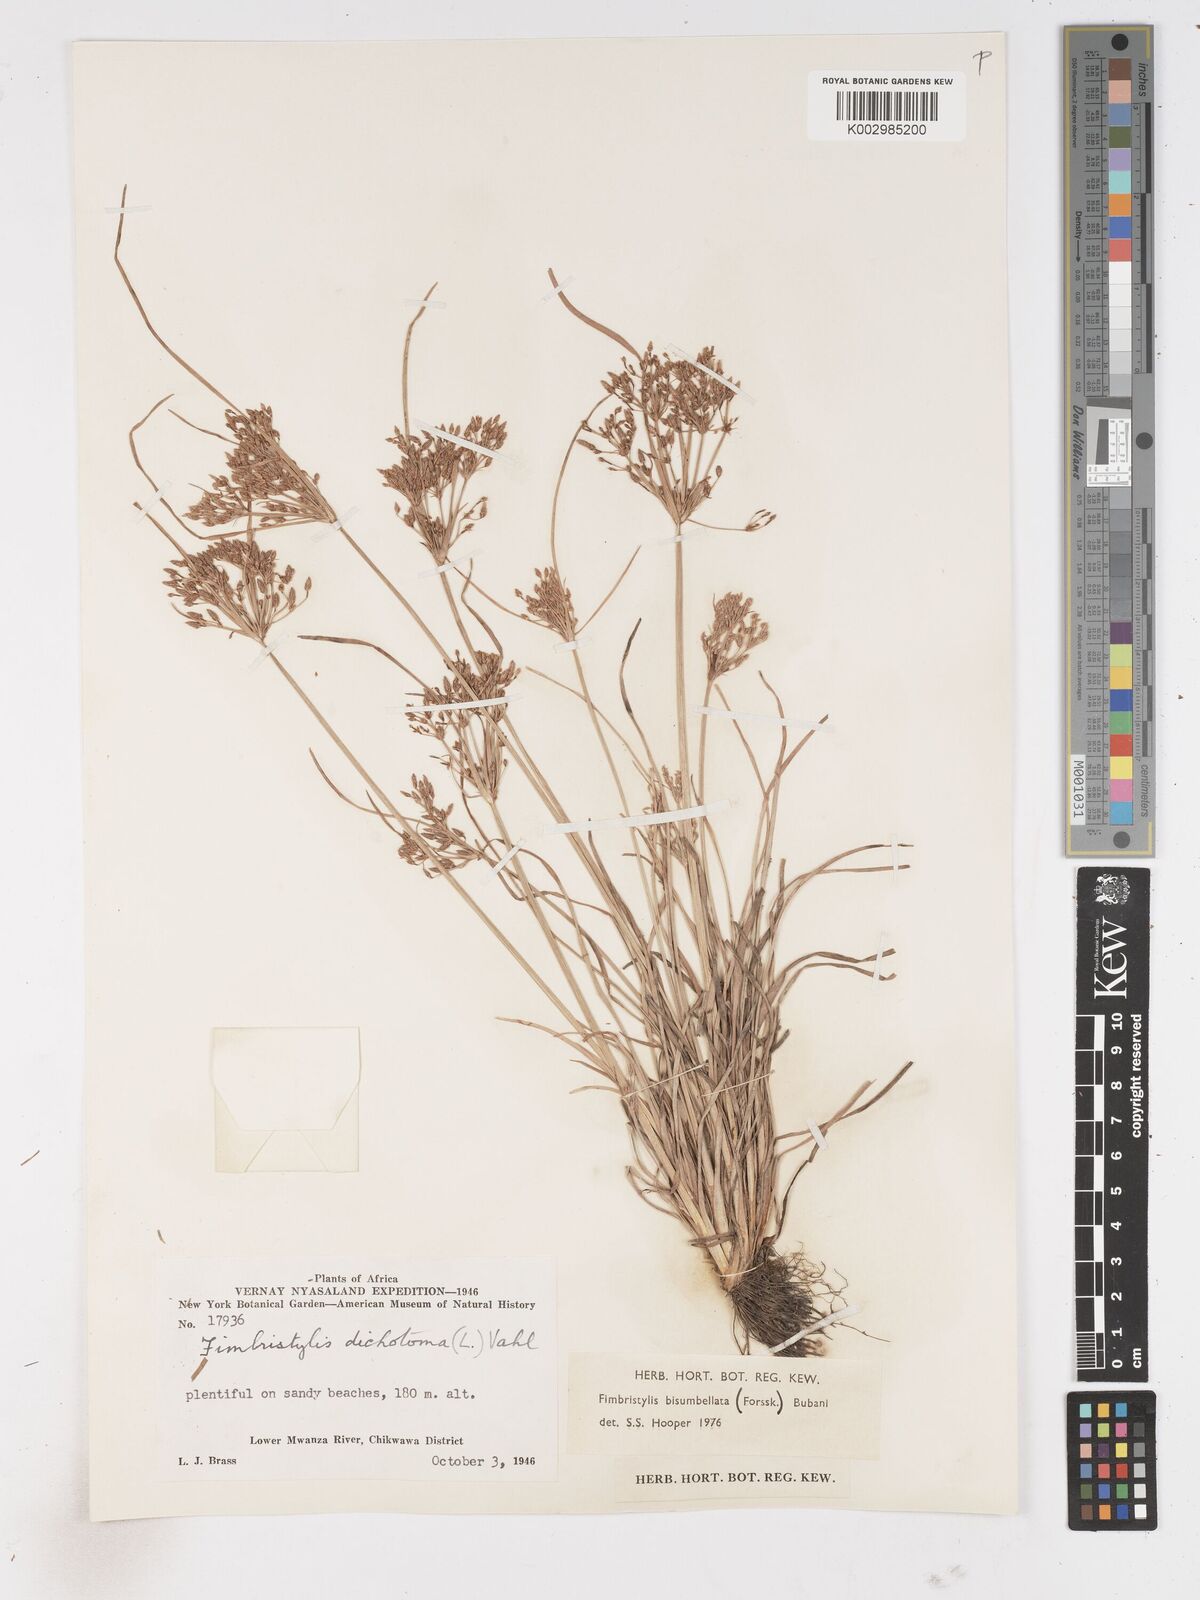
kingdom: Plantae
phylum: Tracheophyta
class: Liliopsida
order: Poales
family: Cyperaceae
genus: Fimbristylis
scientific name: Fimbristylis bisumbellata
